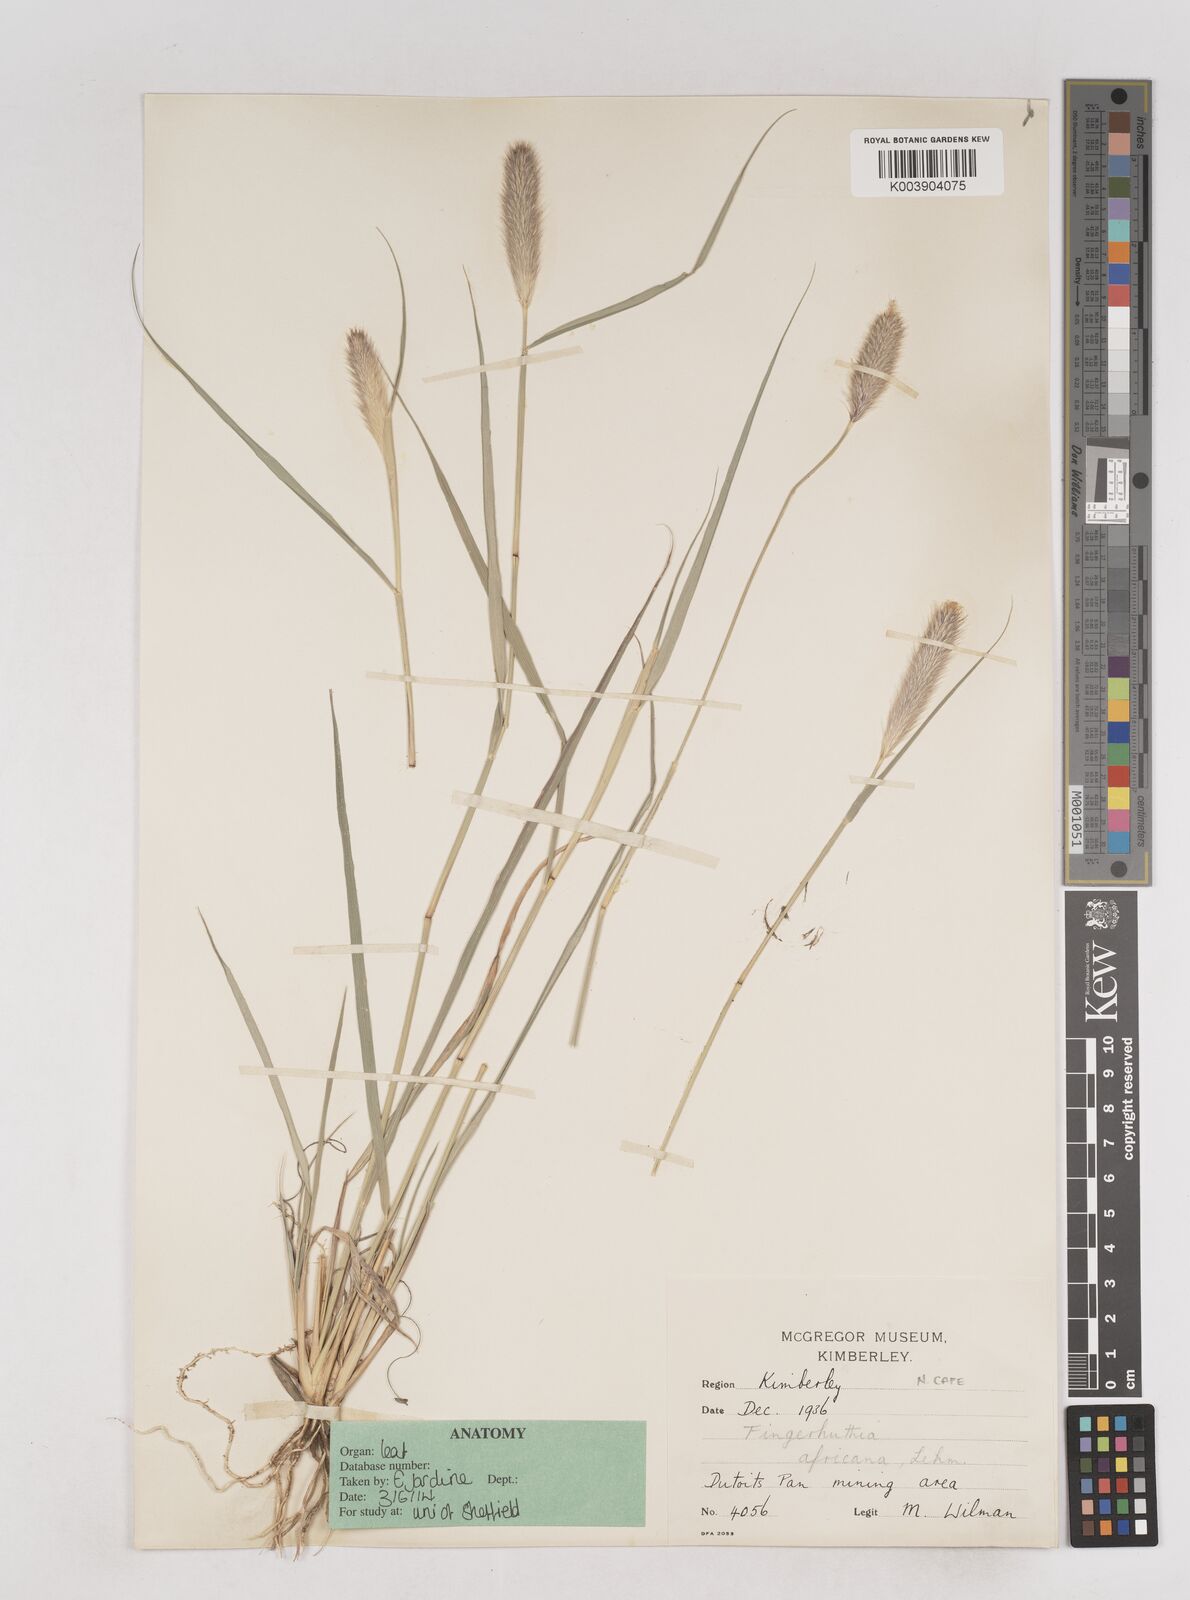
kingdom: Plantae
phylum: Tracheophyta
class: Liliopsida
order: Poales
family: Poaceae
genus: Fingerhuthia
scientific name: Fingerhuthia africana
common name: Zulu fescue
